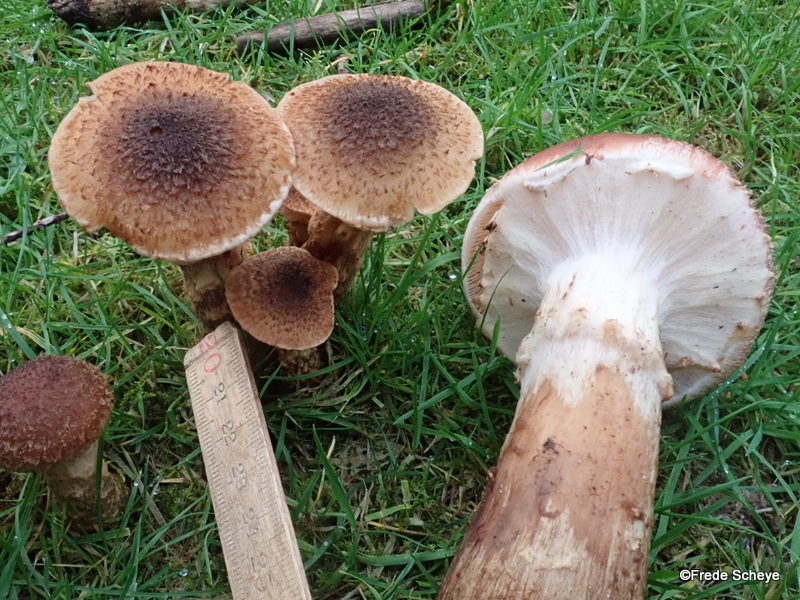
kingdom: Fungi
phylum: Basidiomycota
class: Agaricomycetes
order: Agaricales
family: Physalacriaceae
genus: Armillaria
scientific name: Armillaria ostoyae
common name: mørk honningsvamp
